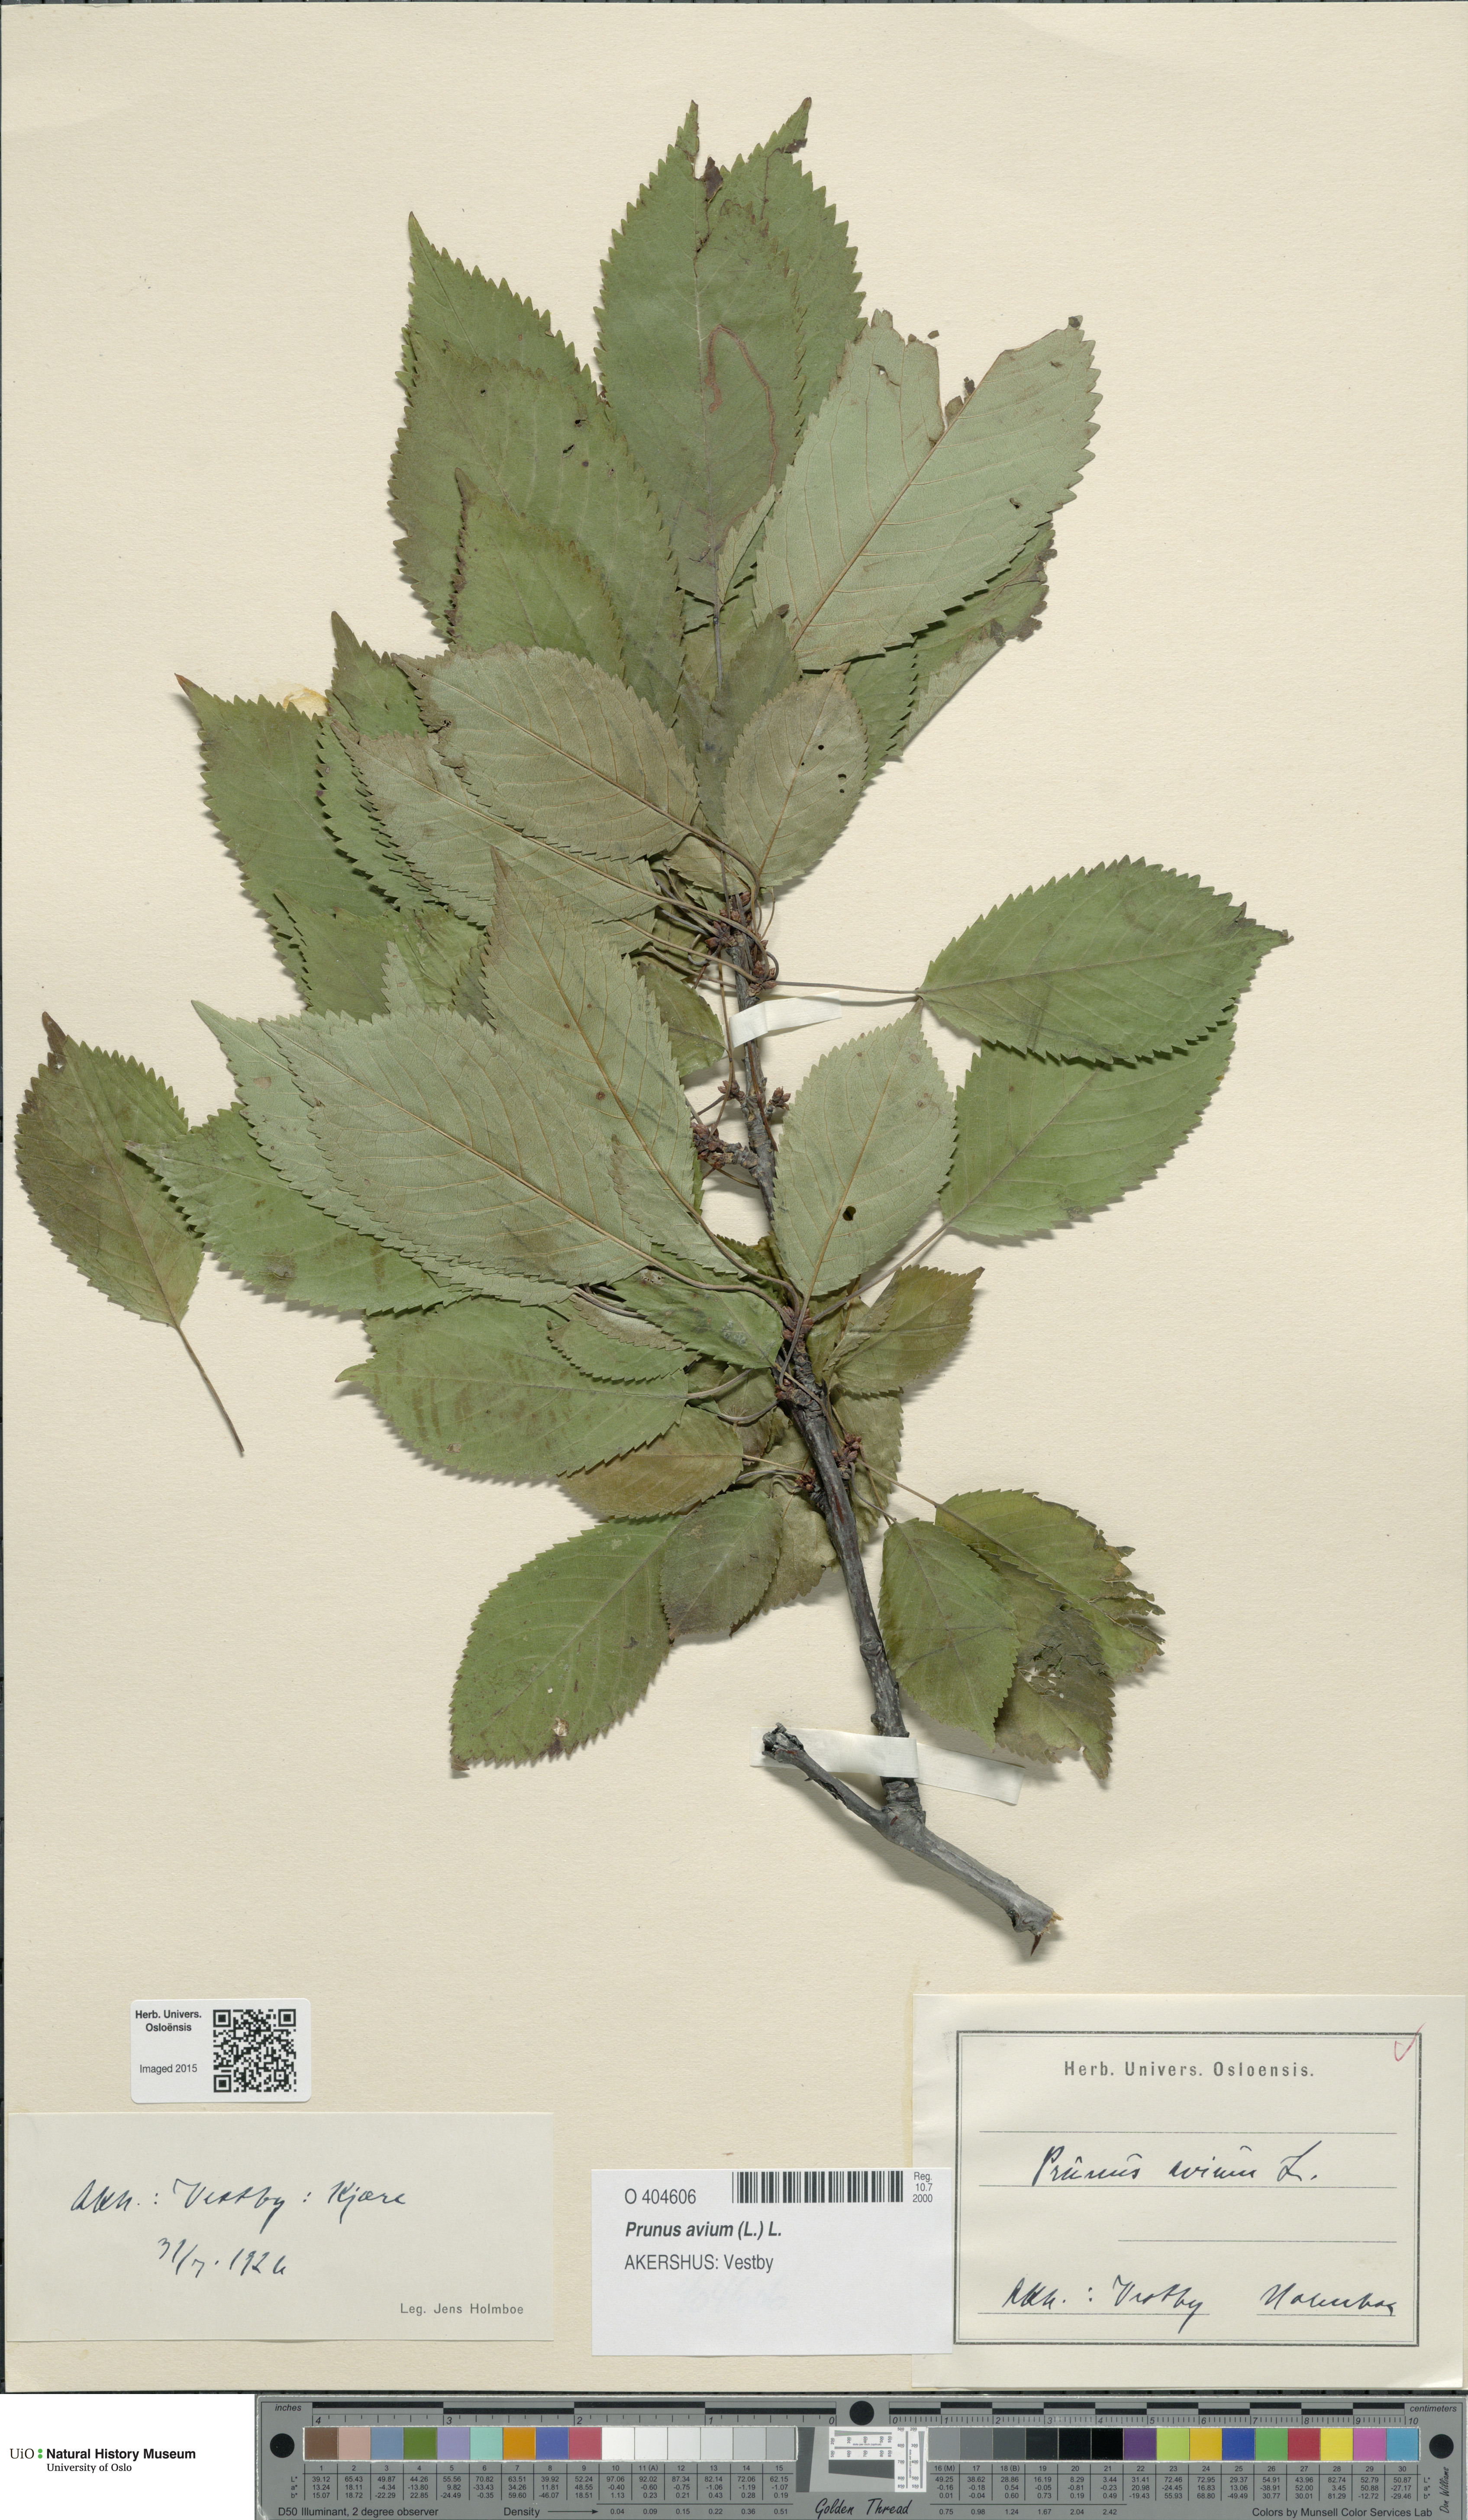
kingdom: Plantae
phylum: Tracheophyta
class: Magnoliopsida
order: Rosales
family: Rosaceae
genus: Prunus
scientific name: Prunus avium
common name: Sweet cherry
